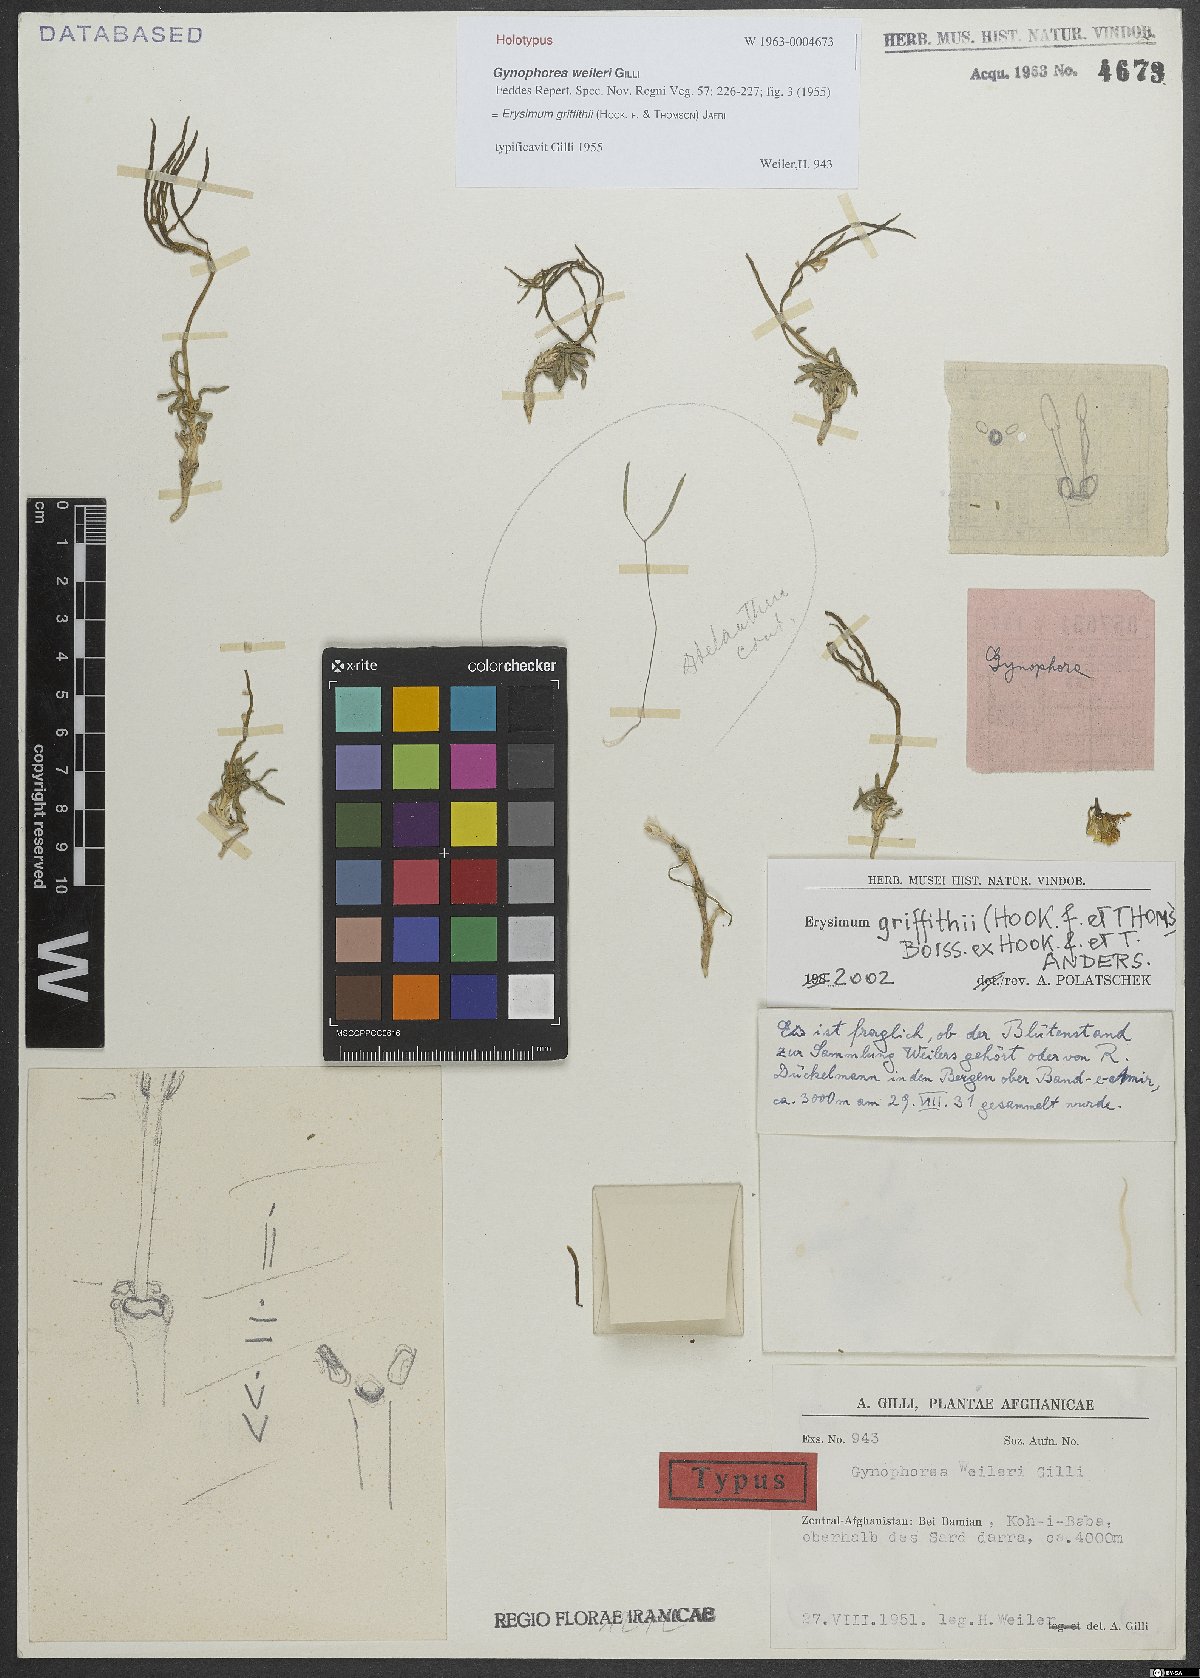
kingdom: Plantae
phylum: Tracheophyta
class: Magnoliopsida
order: Brassicales
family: Brassicaceae
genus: Erysimum
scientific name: Erysimum griffithii
